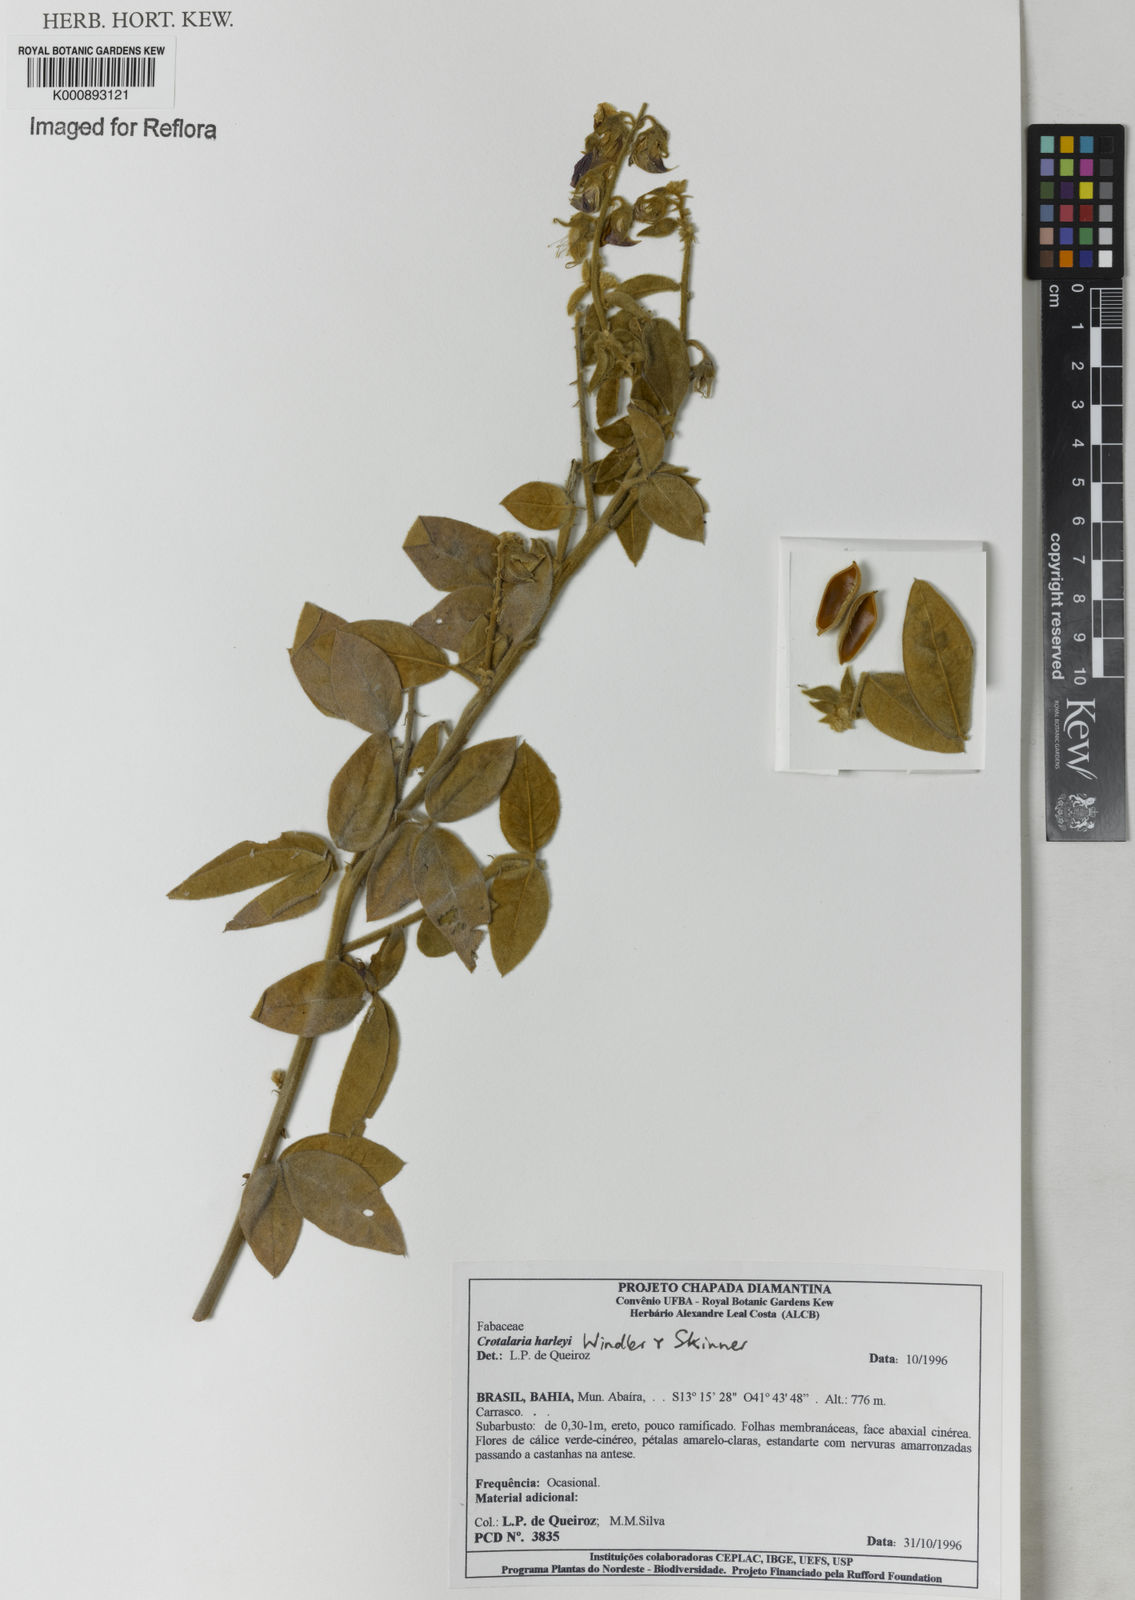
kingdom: Plantae
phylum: Tracheophyta
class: Magnoliopsida
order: Fabales
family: Fabaceae
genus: Crotalaria
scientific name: Crotalaria harleyi
